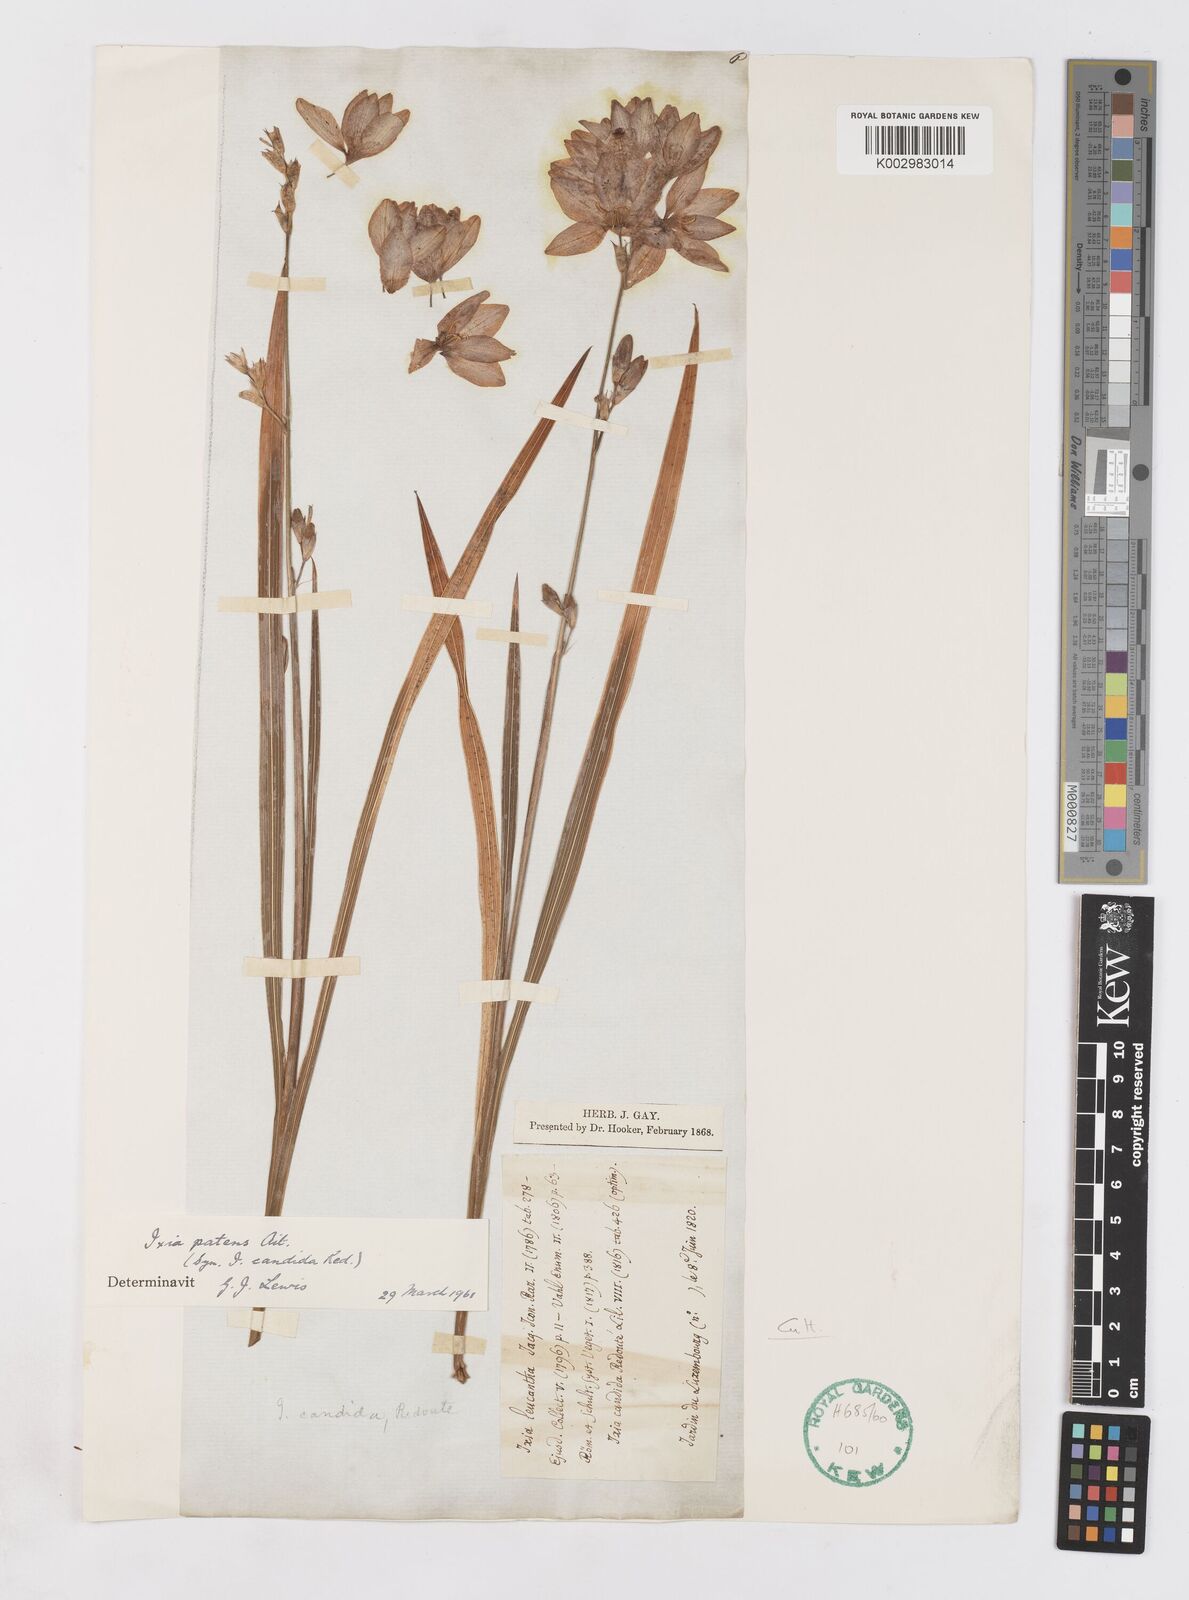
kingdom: Plantae
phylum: Tracheophyta
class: Liliopsida
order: Asparagales
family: Iridaceae
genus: Ixia
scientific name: Ixia patens
